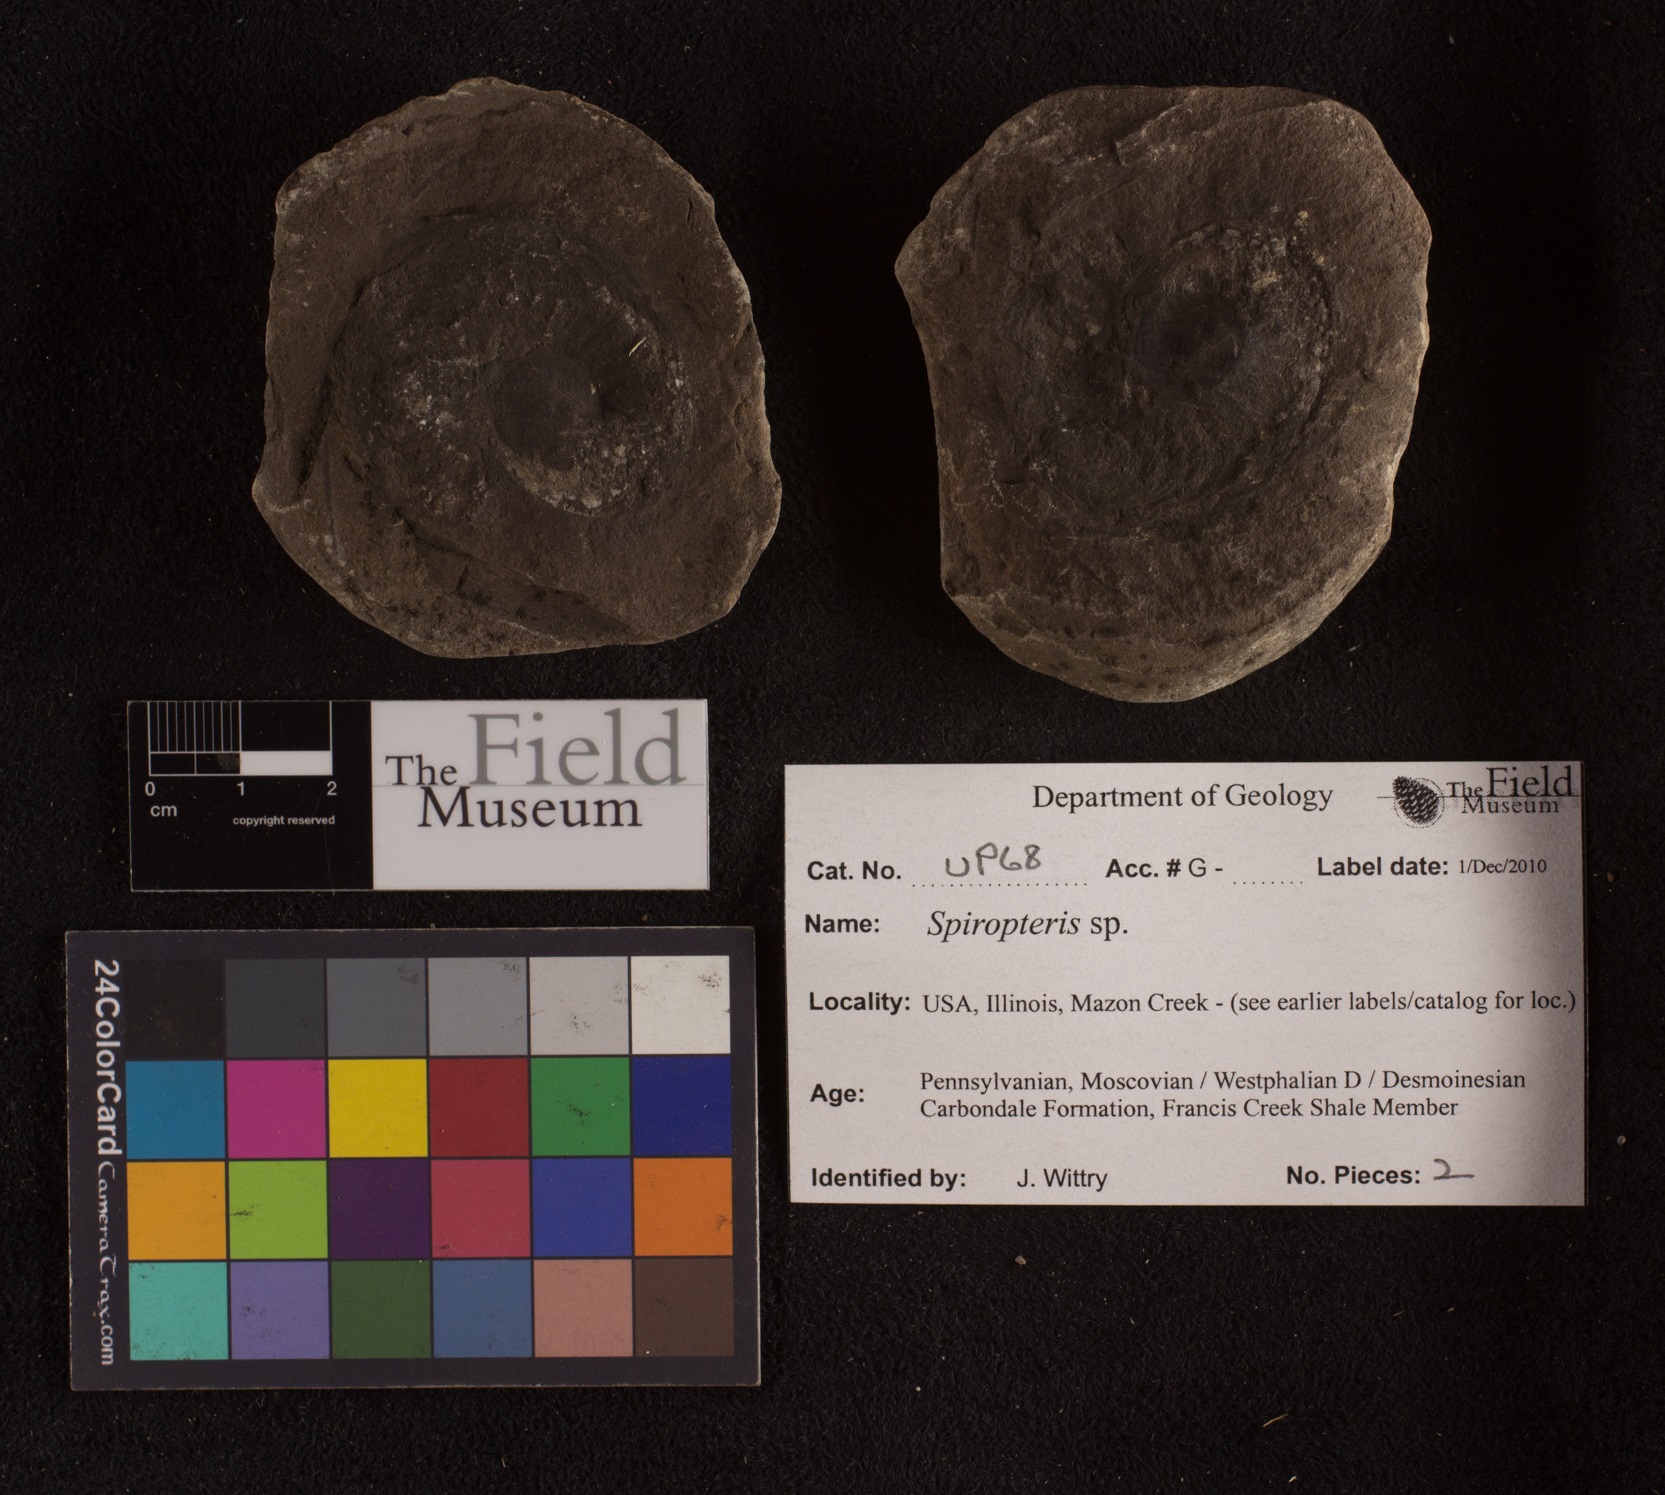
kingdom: Plantae
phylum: Tracheophyta
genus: Spiropteris
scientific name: Spiropteris
